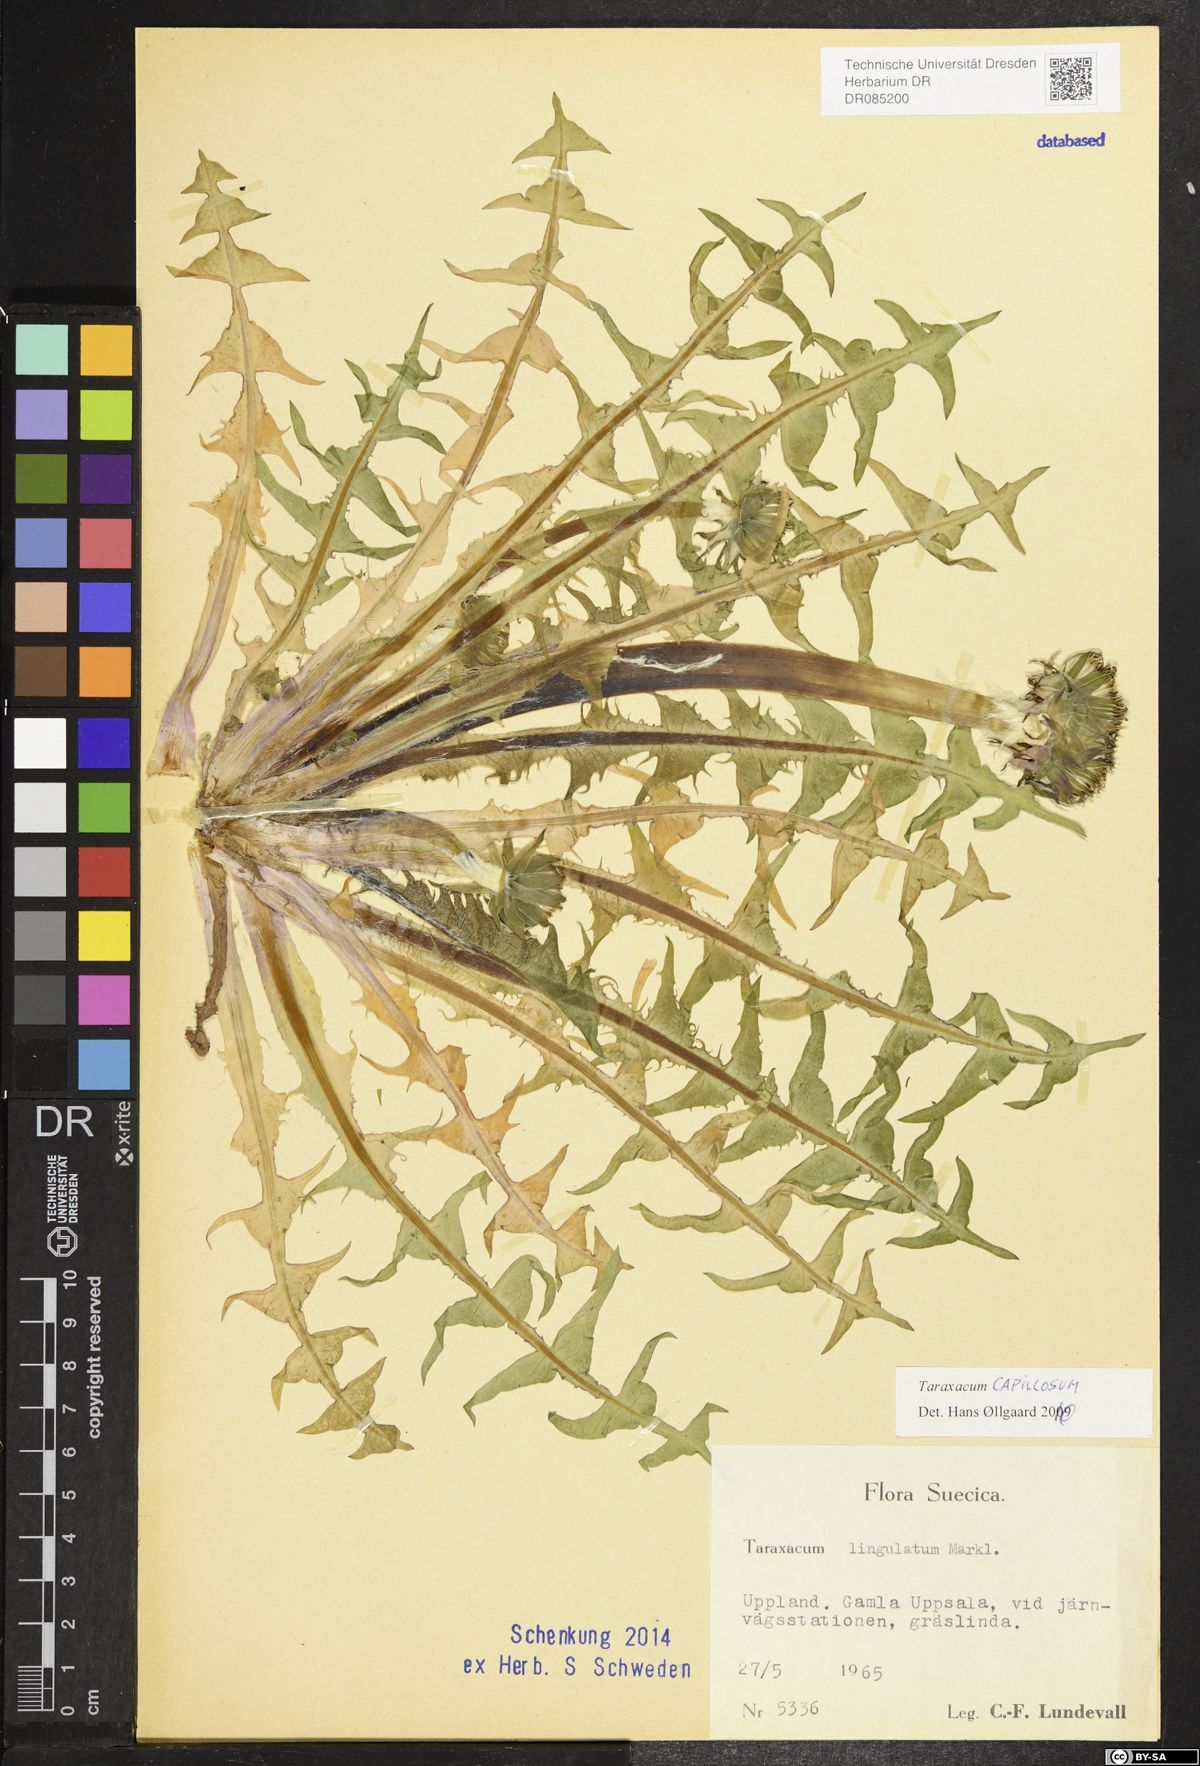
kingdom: Plantae
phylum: Tracheophyta
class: Magnoliopsida
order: Asterales
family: Asteraceae
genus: Taraxacum
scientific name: Taraxacum capillosum
